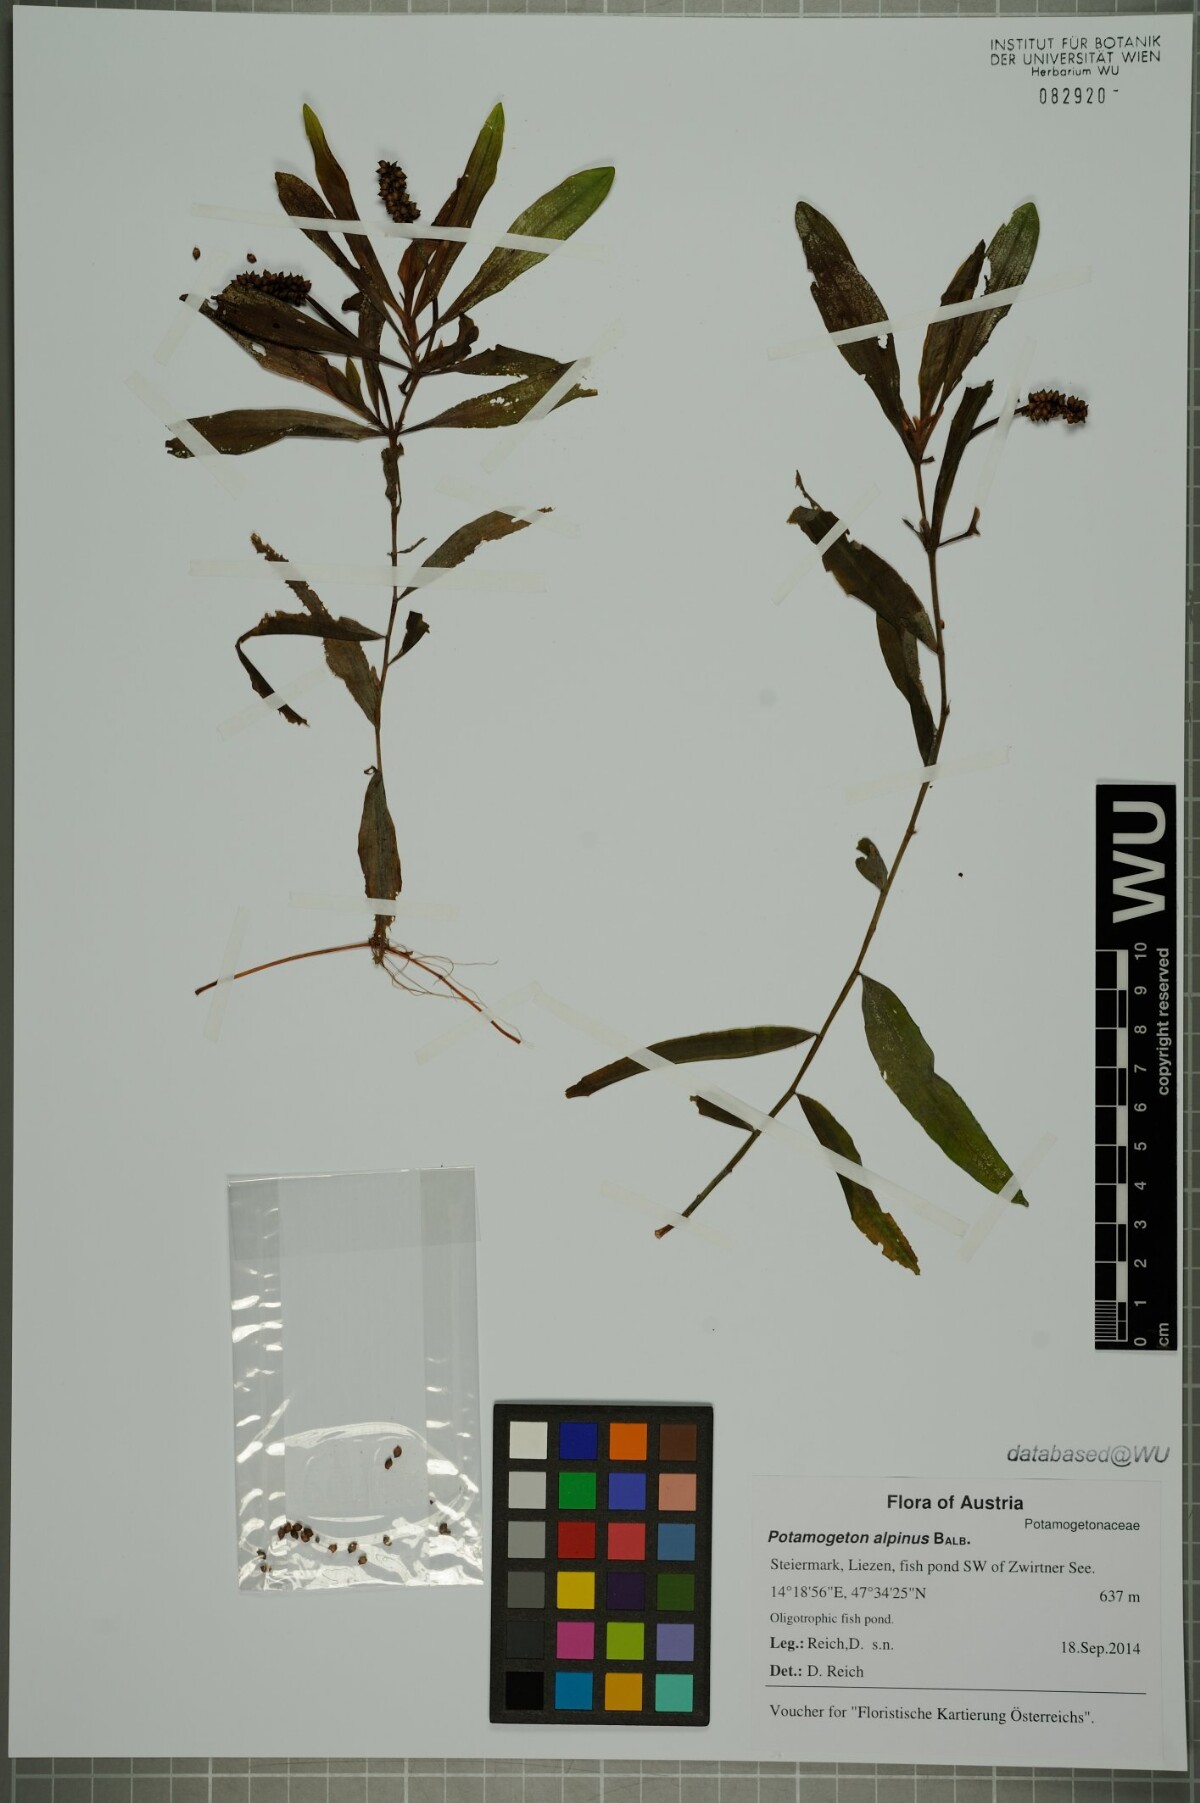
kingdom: Plantae
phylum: Tracheophyta
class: Liliopsida
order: Alismatales
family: Potamogetonaceae
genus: Potamogeton
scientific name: Potamogeton alpinus
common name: Red pondweed
